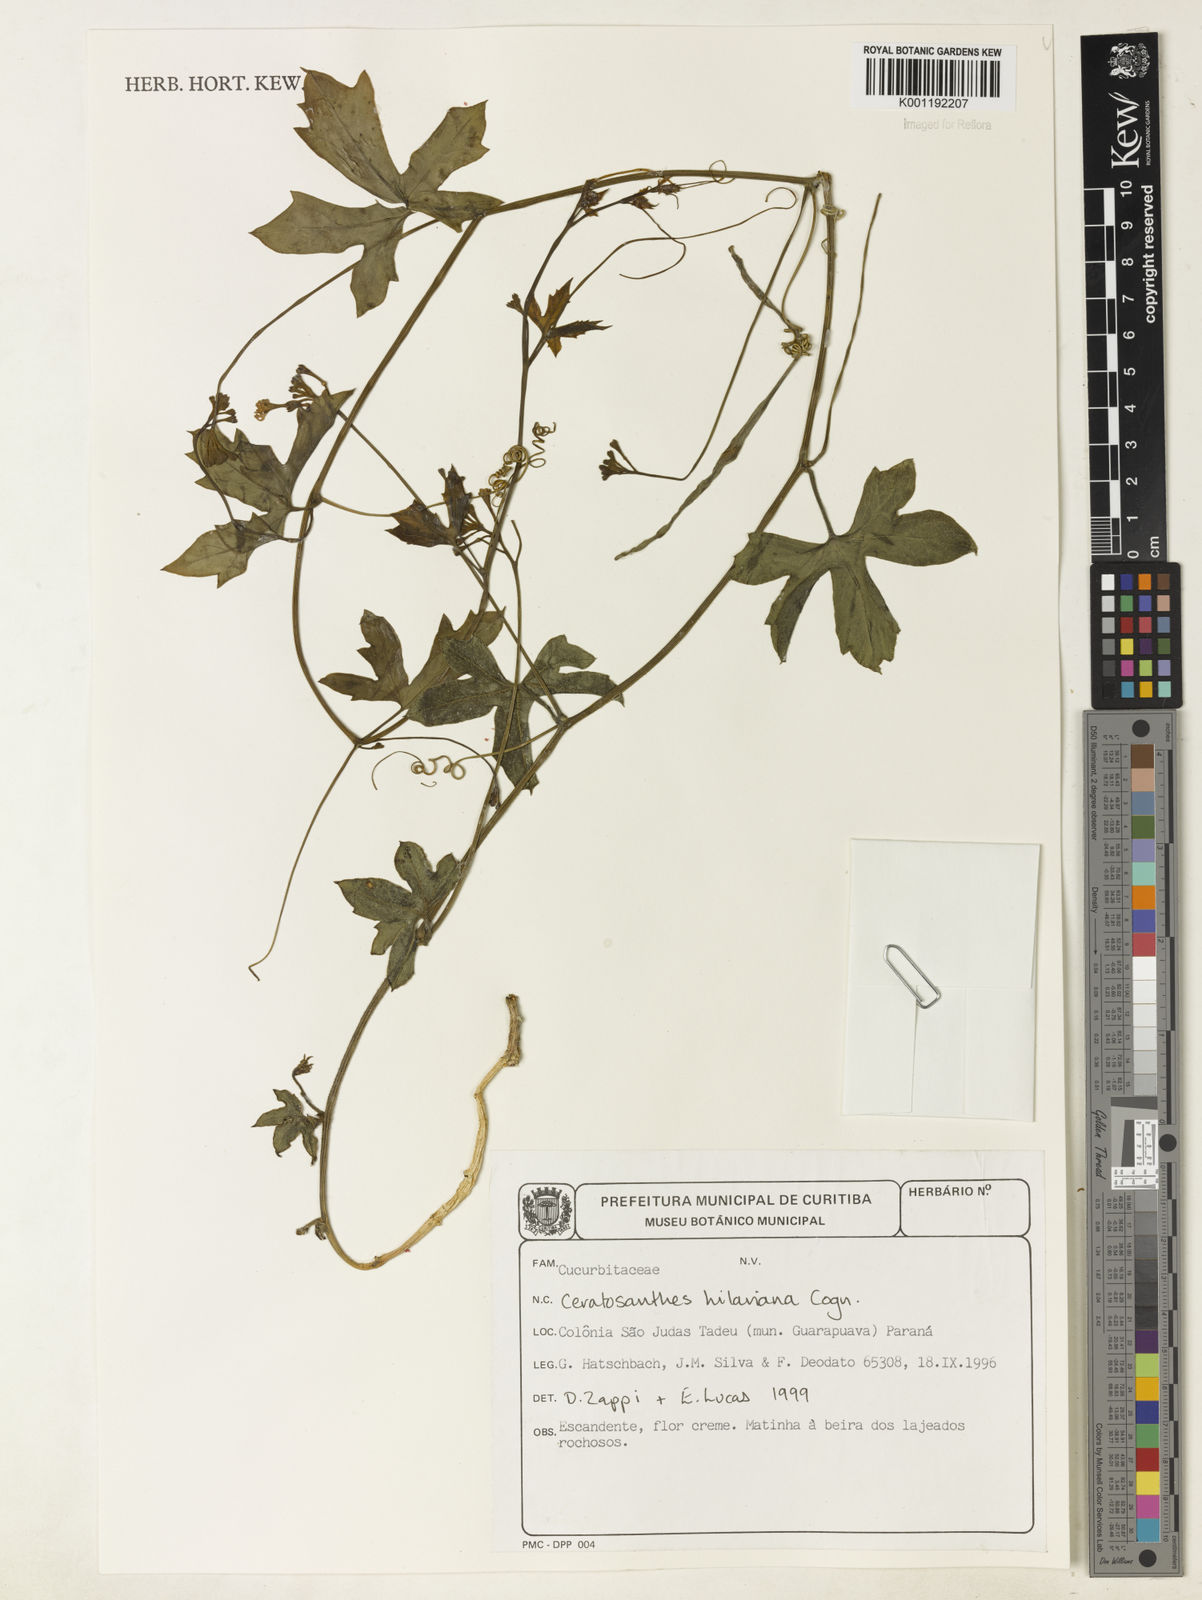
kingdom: Plantae
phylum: Tracheophyta
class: Magnoliopsida
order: Cucurbitales
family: Cucurbitaceae
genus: Ceratosanthes
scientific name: Ceratosanthes hilariana
